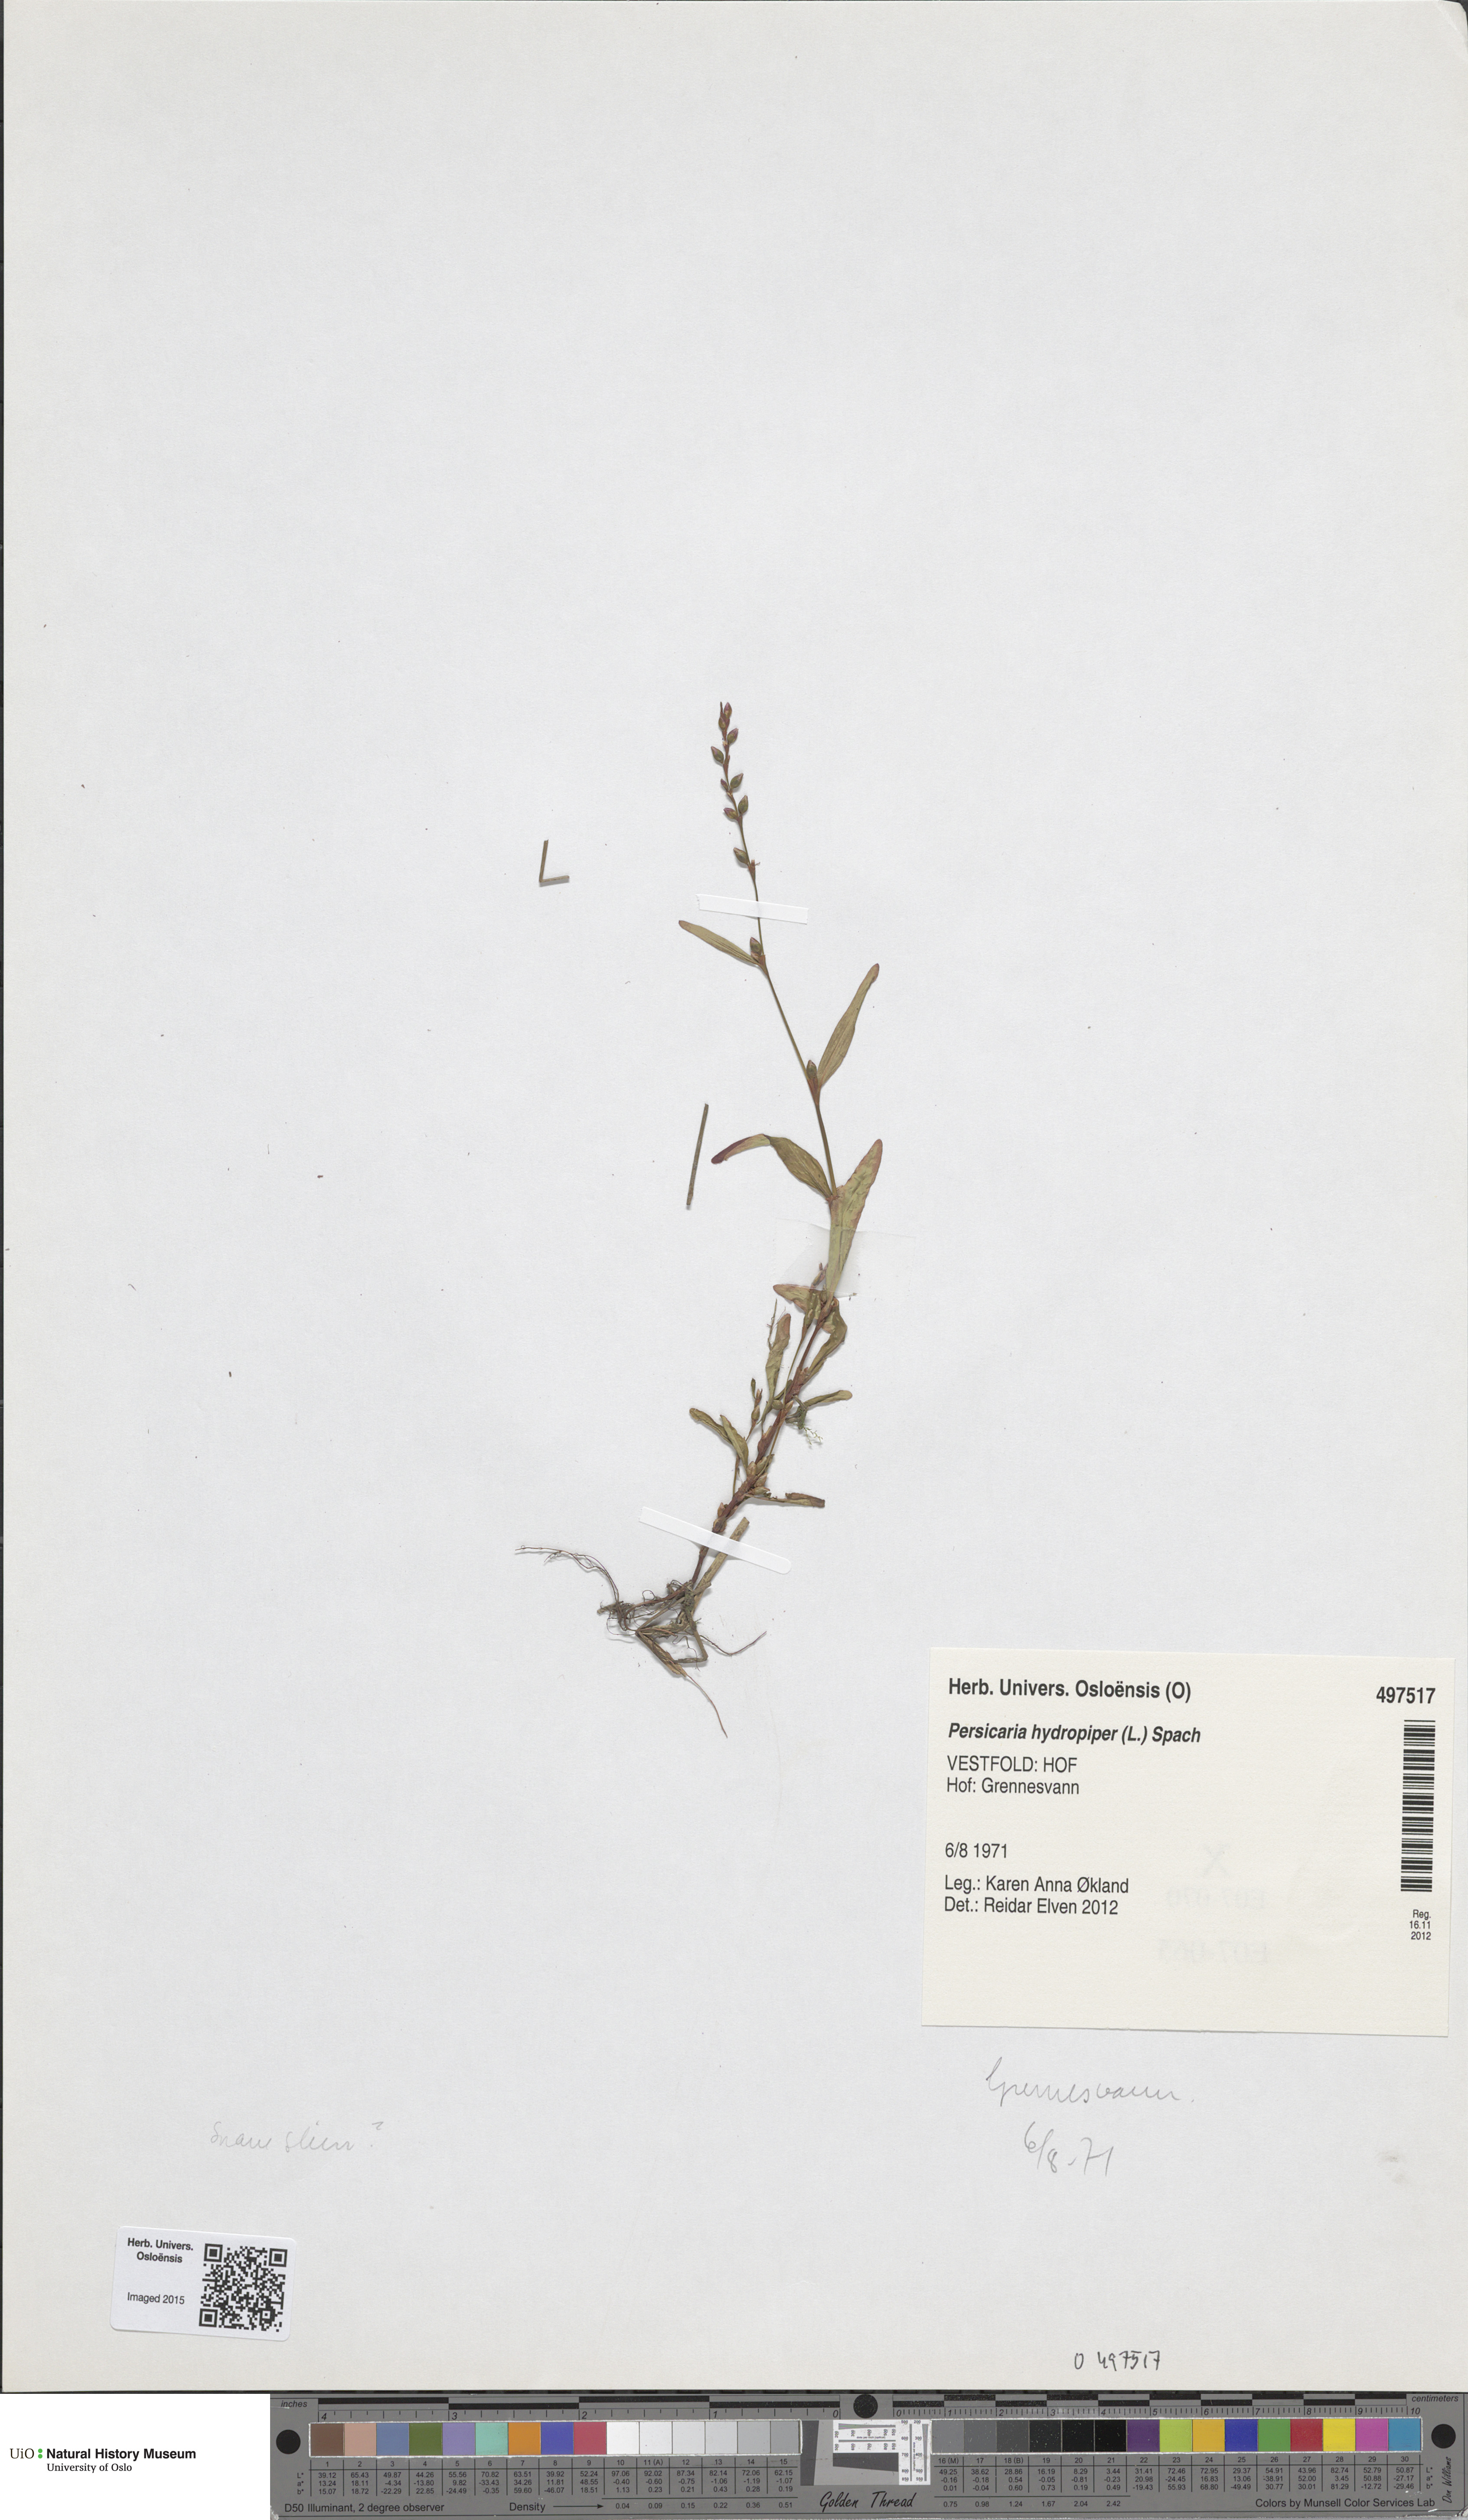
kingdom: Plantae
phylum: Tracheophyta
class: Magnoliopsida
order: Caryophyllales
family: Polygonaceae
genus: Persicaria
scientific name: Persicaria hydropiper
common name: Water-pepper
